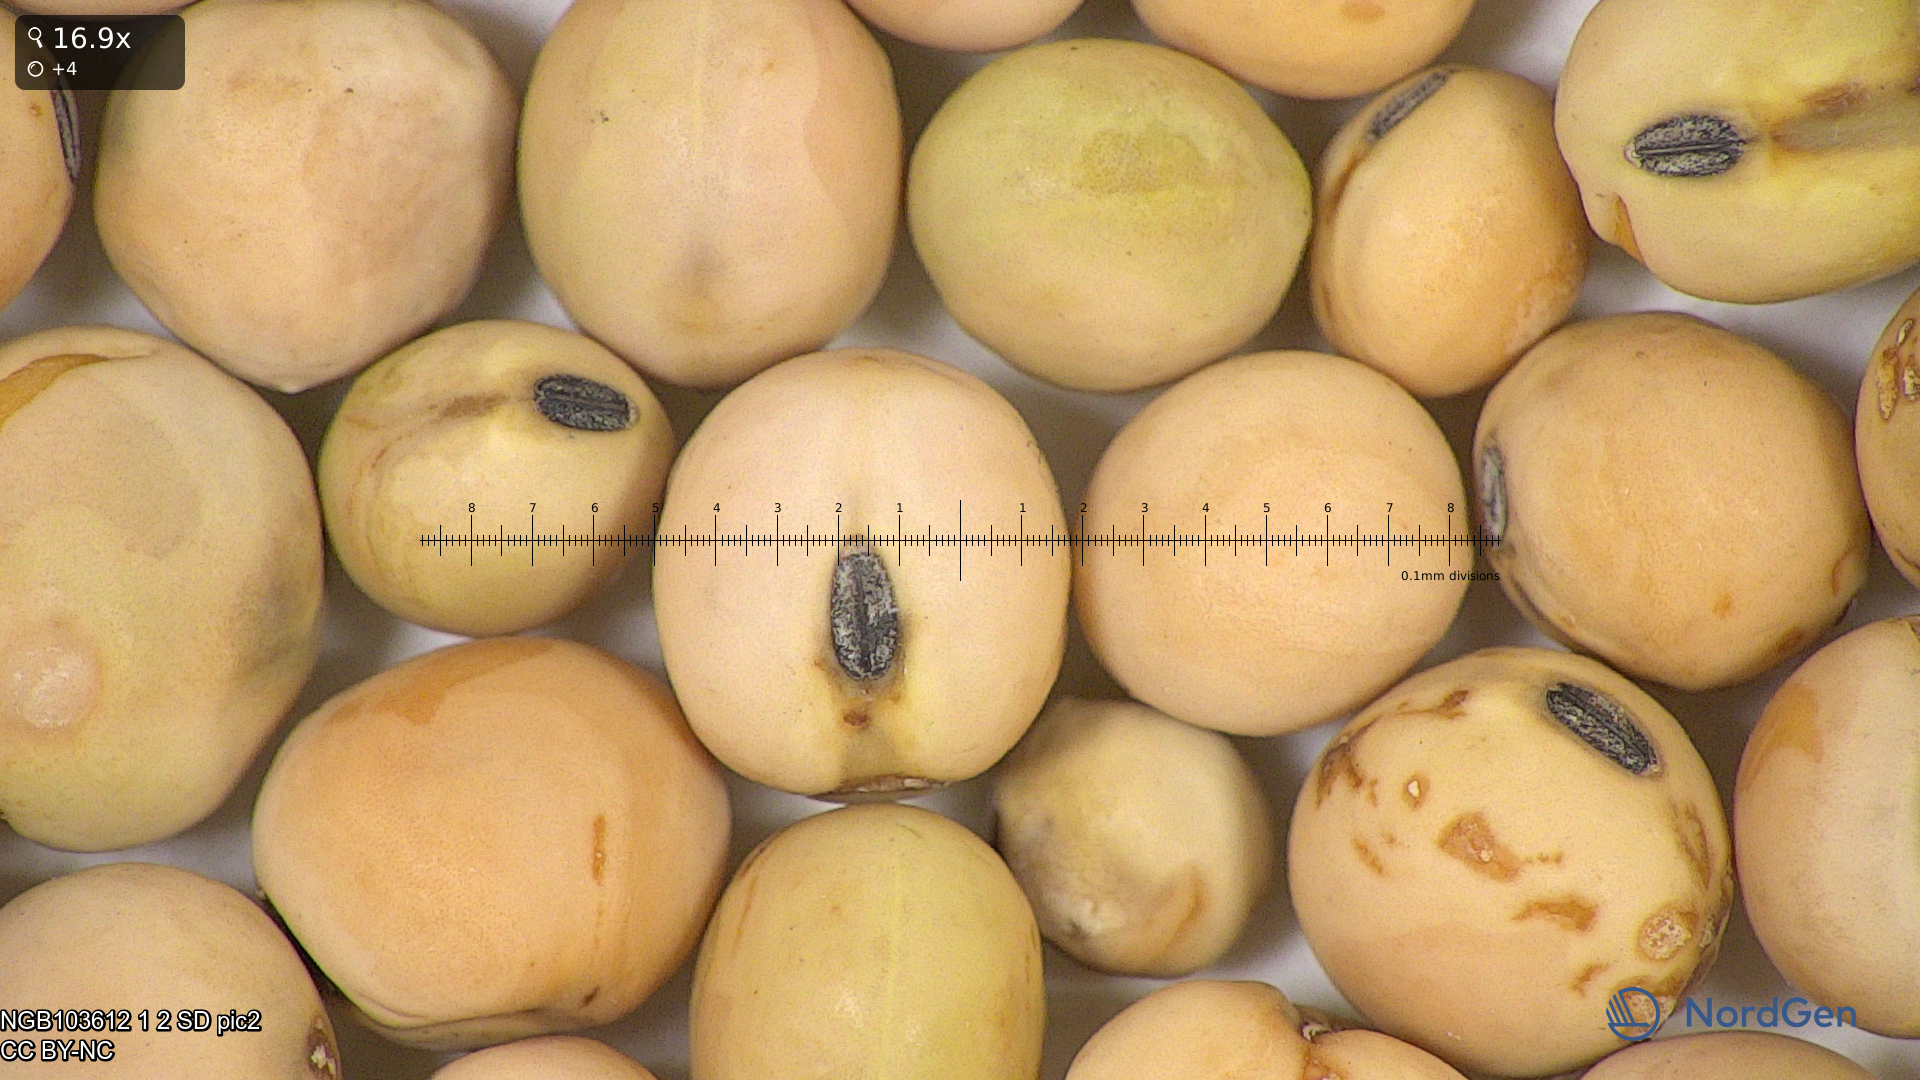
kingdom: Plantae
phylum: Tracheophyta
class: Magnoliopsida
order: Fabales
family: Fabaceae
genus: Lathyrus
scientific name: Lathyrus oleraceus
